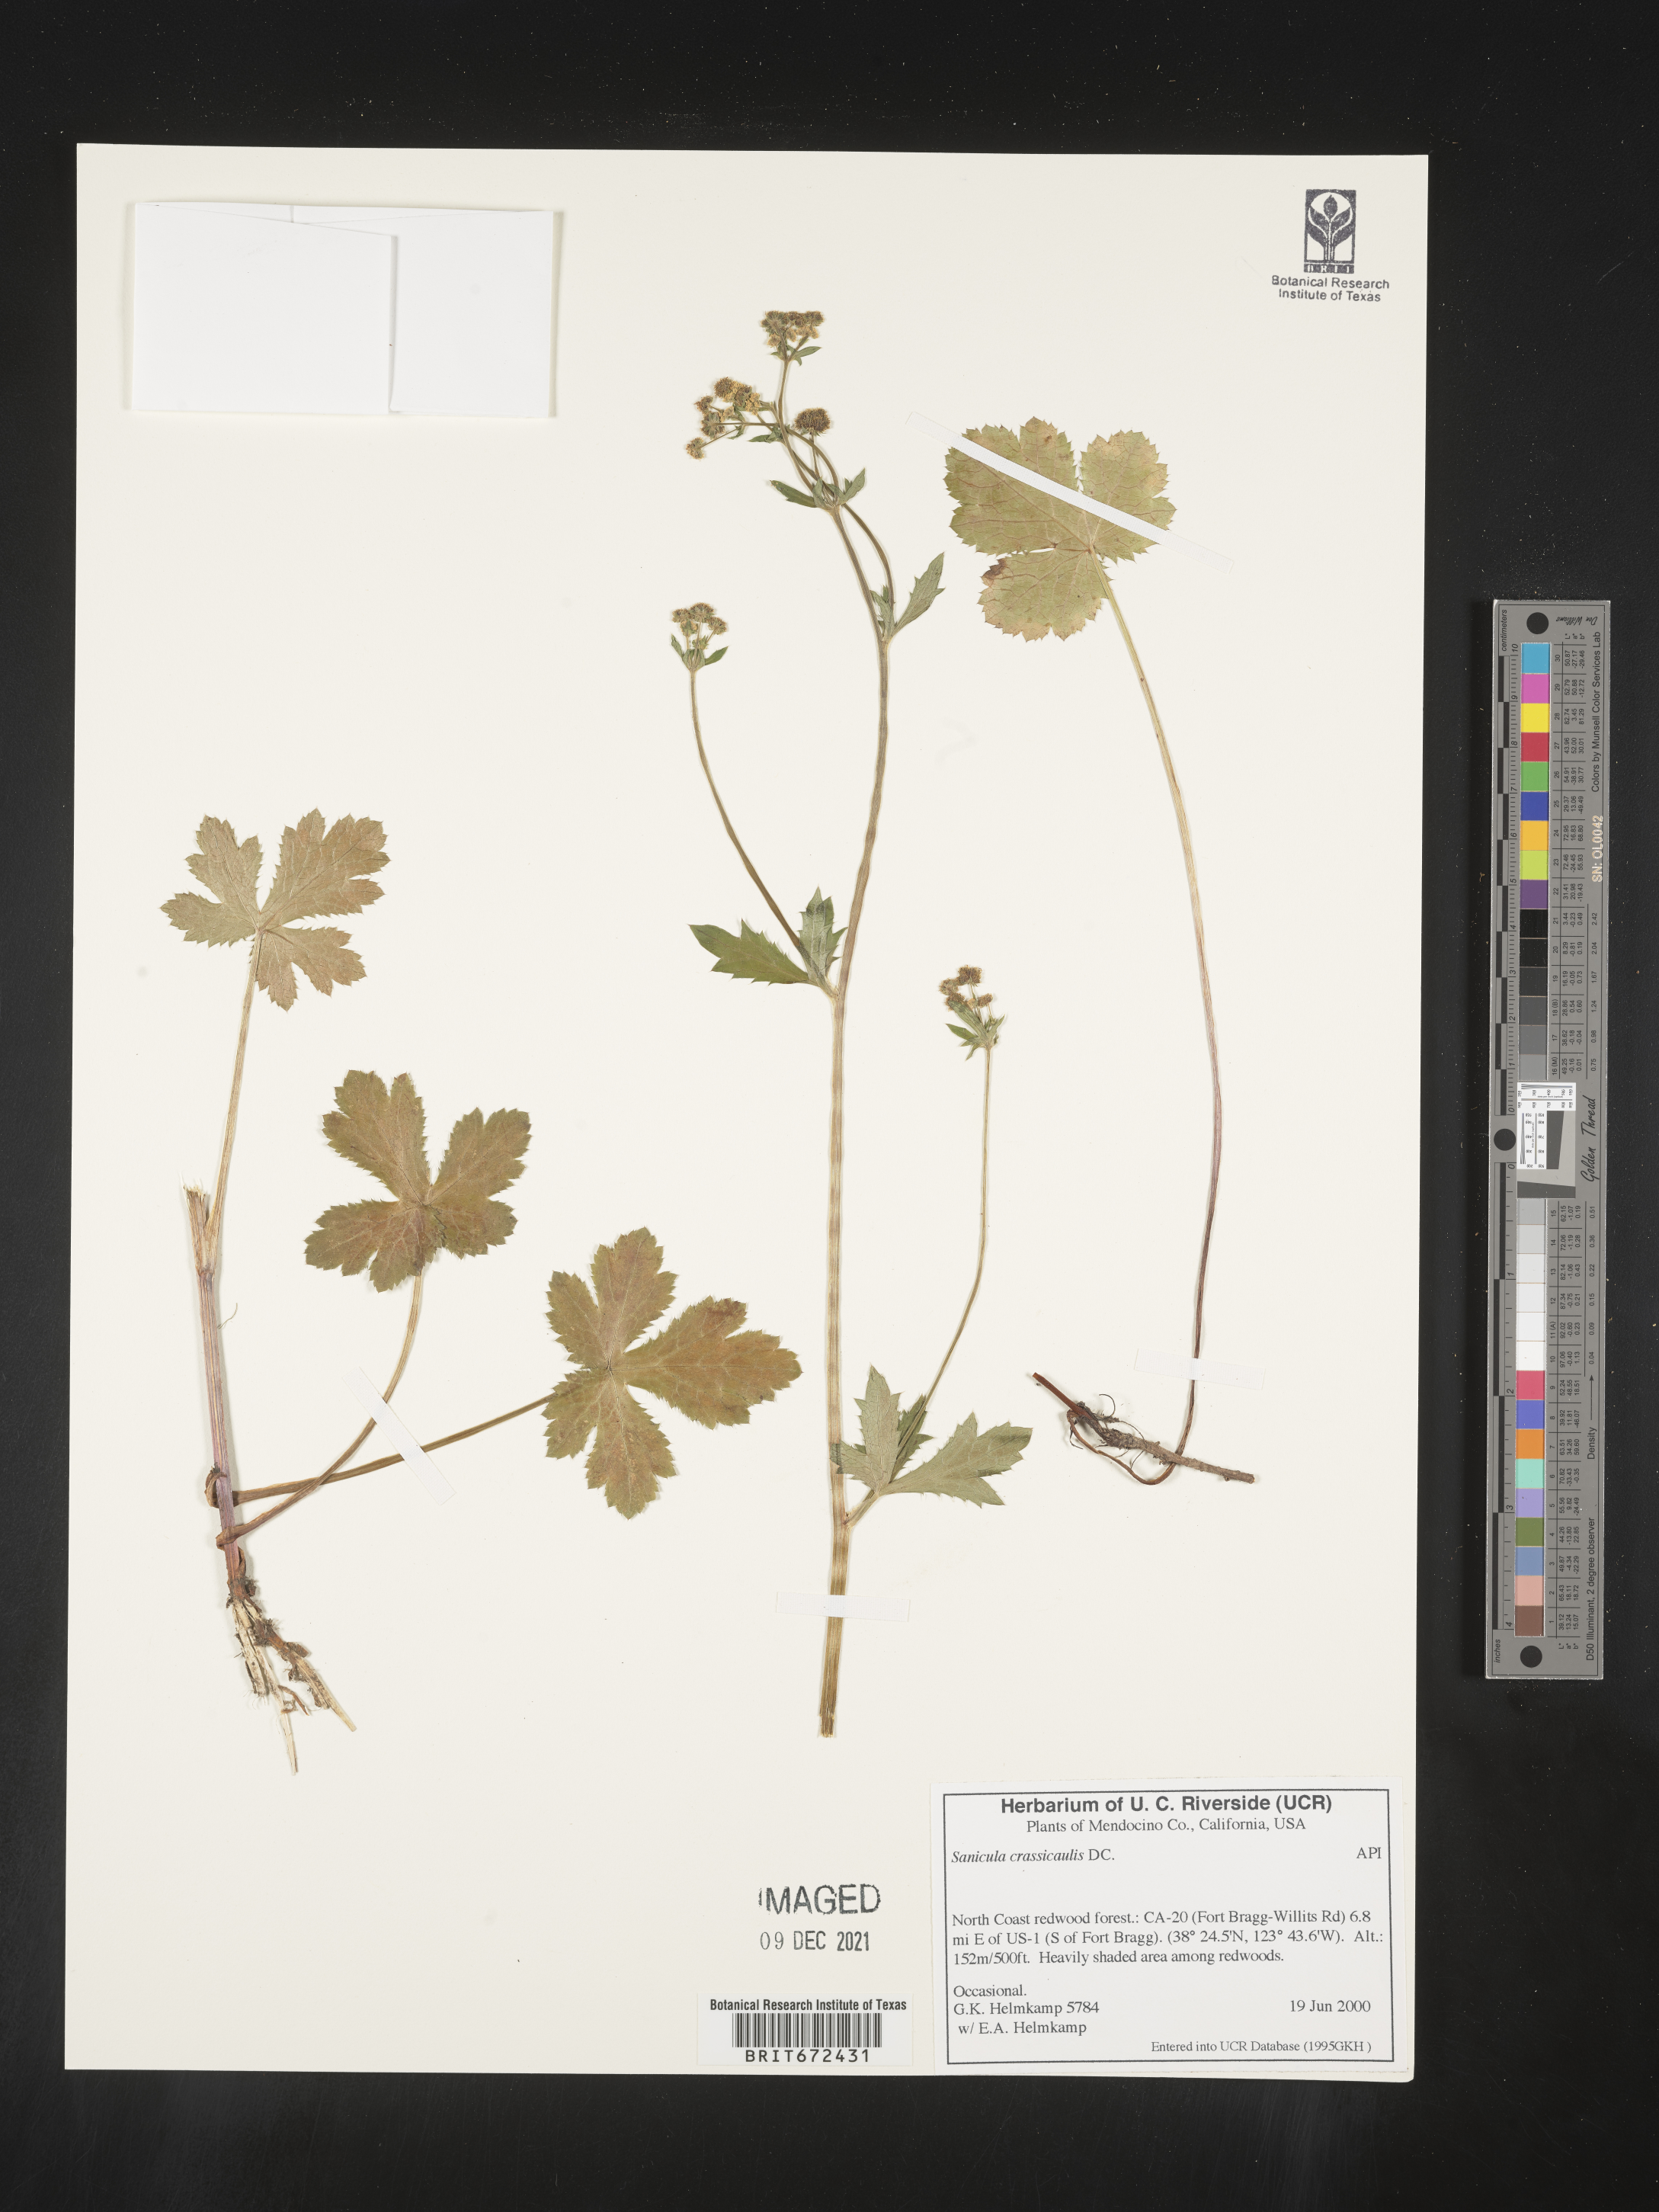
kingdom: Plantae
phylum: Tracheophyta
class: Magnoliopsida
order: Apiales
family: Apiaceae
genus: Sanicula
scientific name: Sanicula crassicaulis
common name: Western snakeroot
